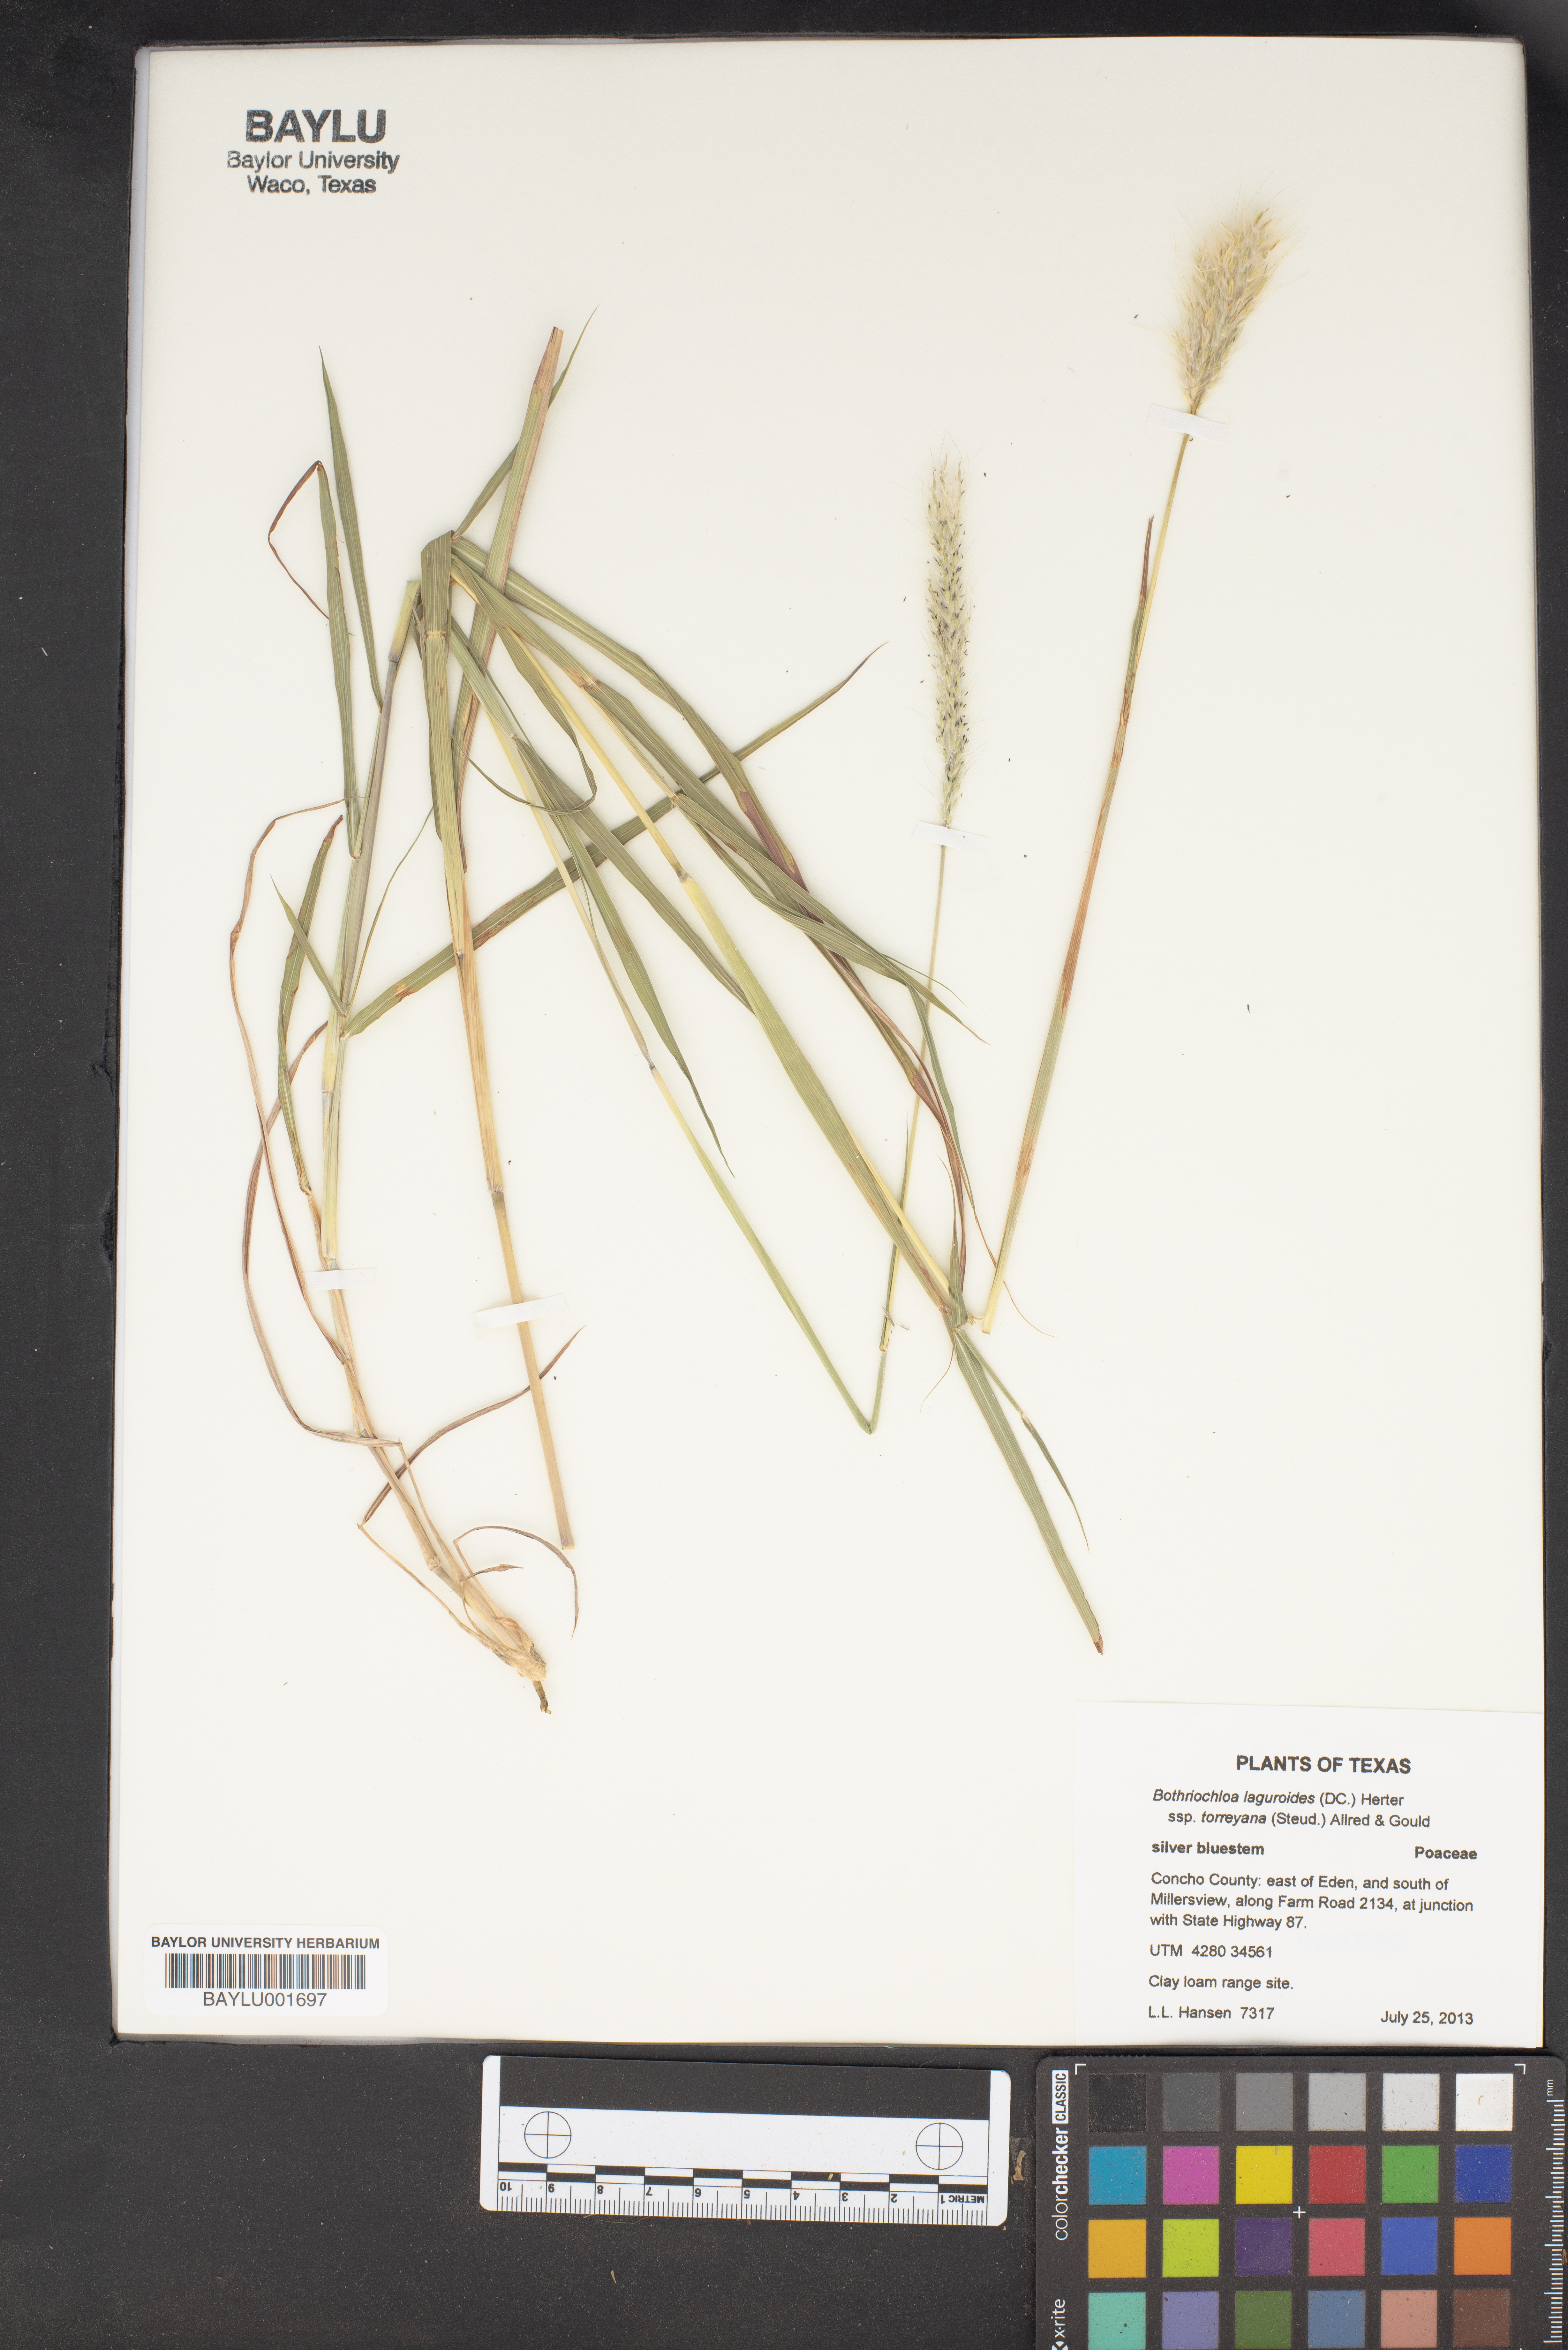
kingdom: Plantae
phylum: Tracheophyta
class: Liliopsida
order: Poales
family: Poaceae
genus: Bothriochloa
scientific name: Bothriochloa torreyana
